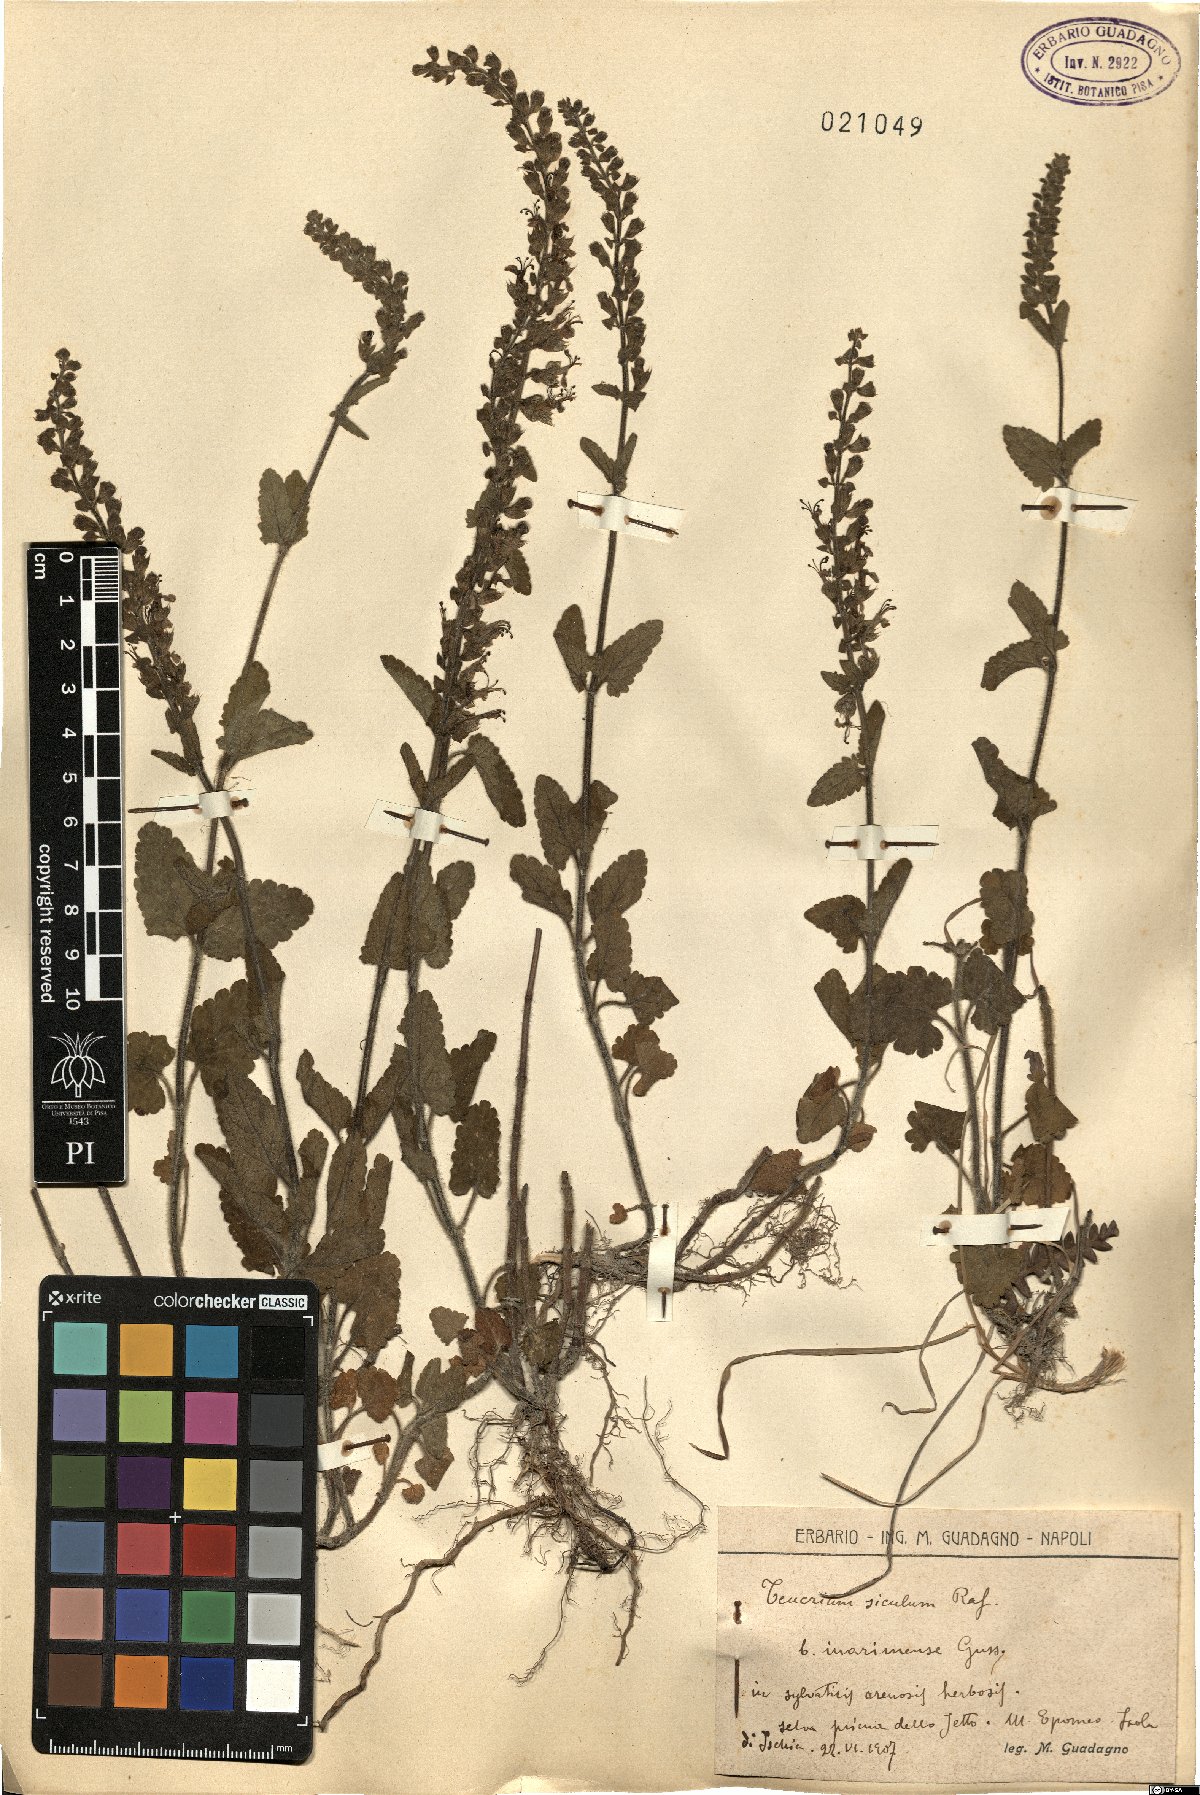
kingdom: Plantae
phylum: Tracheophyta
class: Magnoliopsida
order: Lamiales
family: Lamiaceae
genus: Teucrium
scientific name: Teucrium siculum
